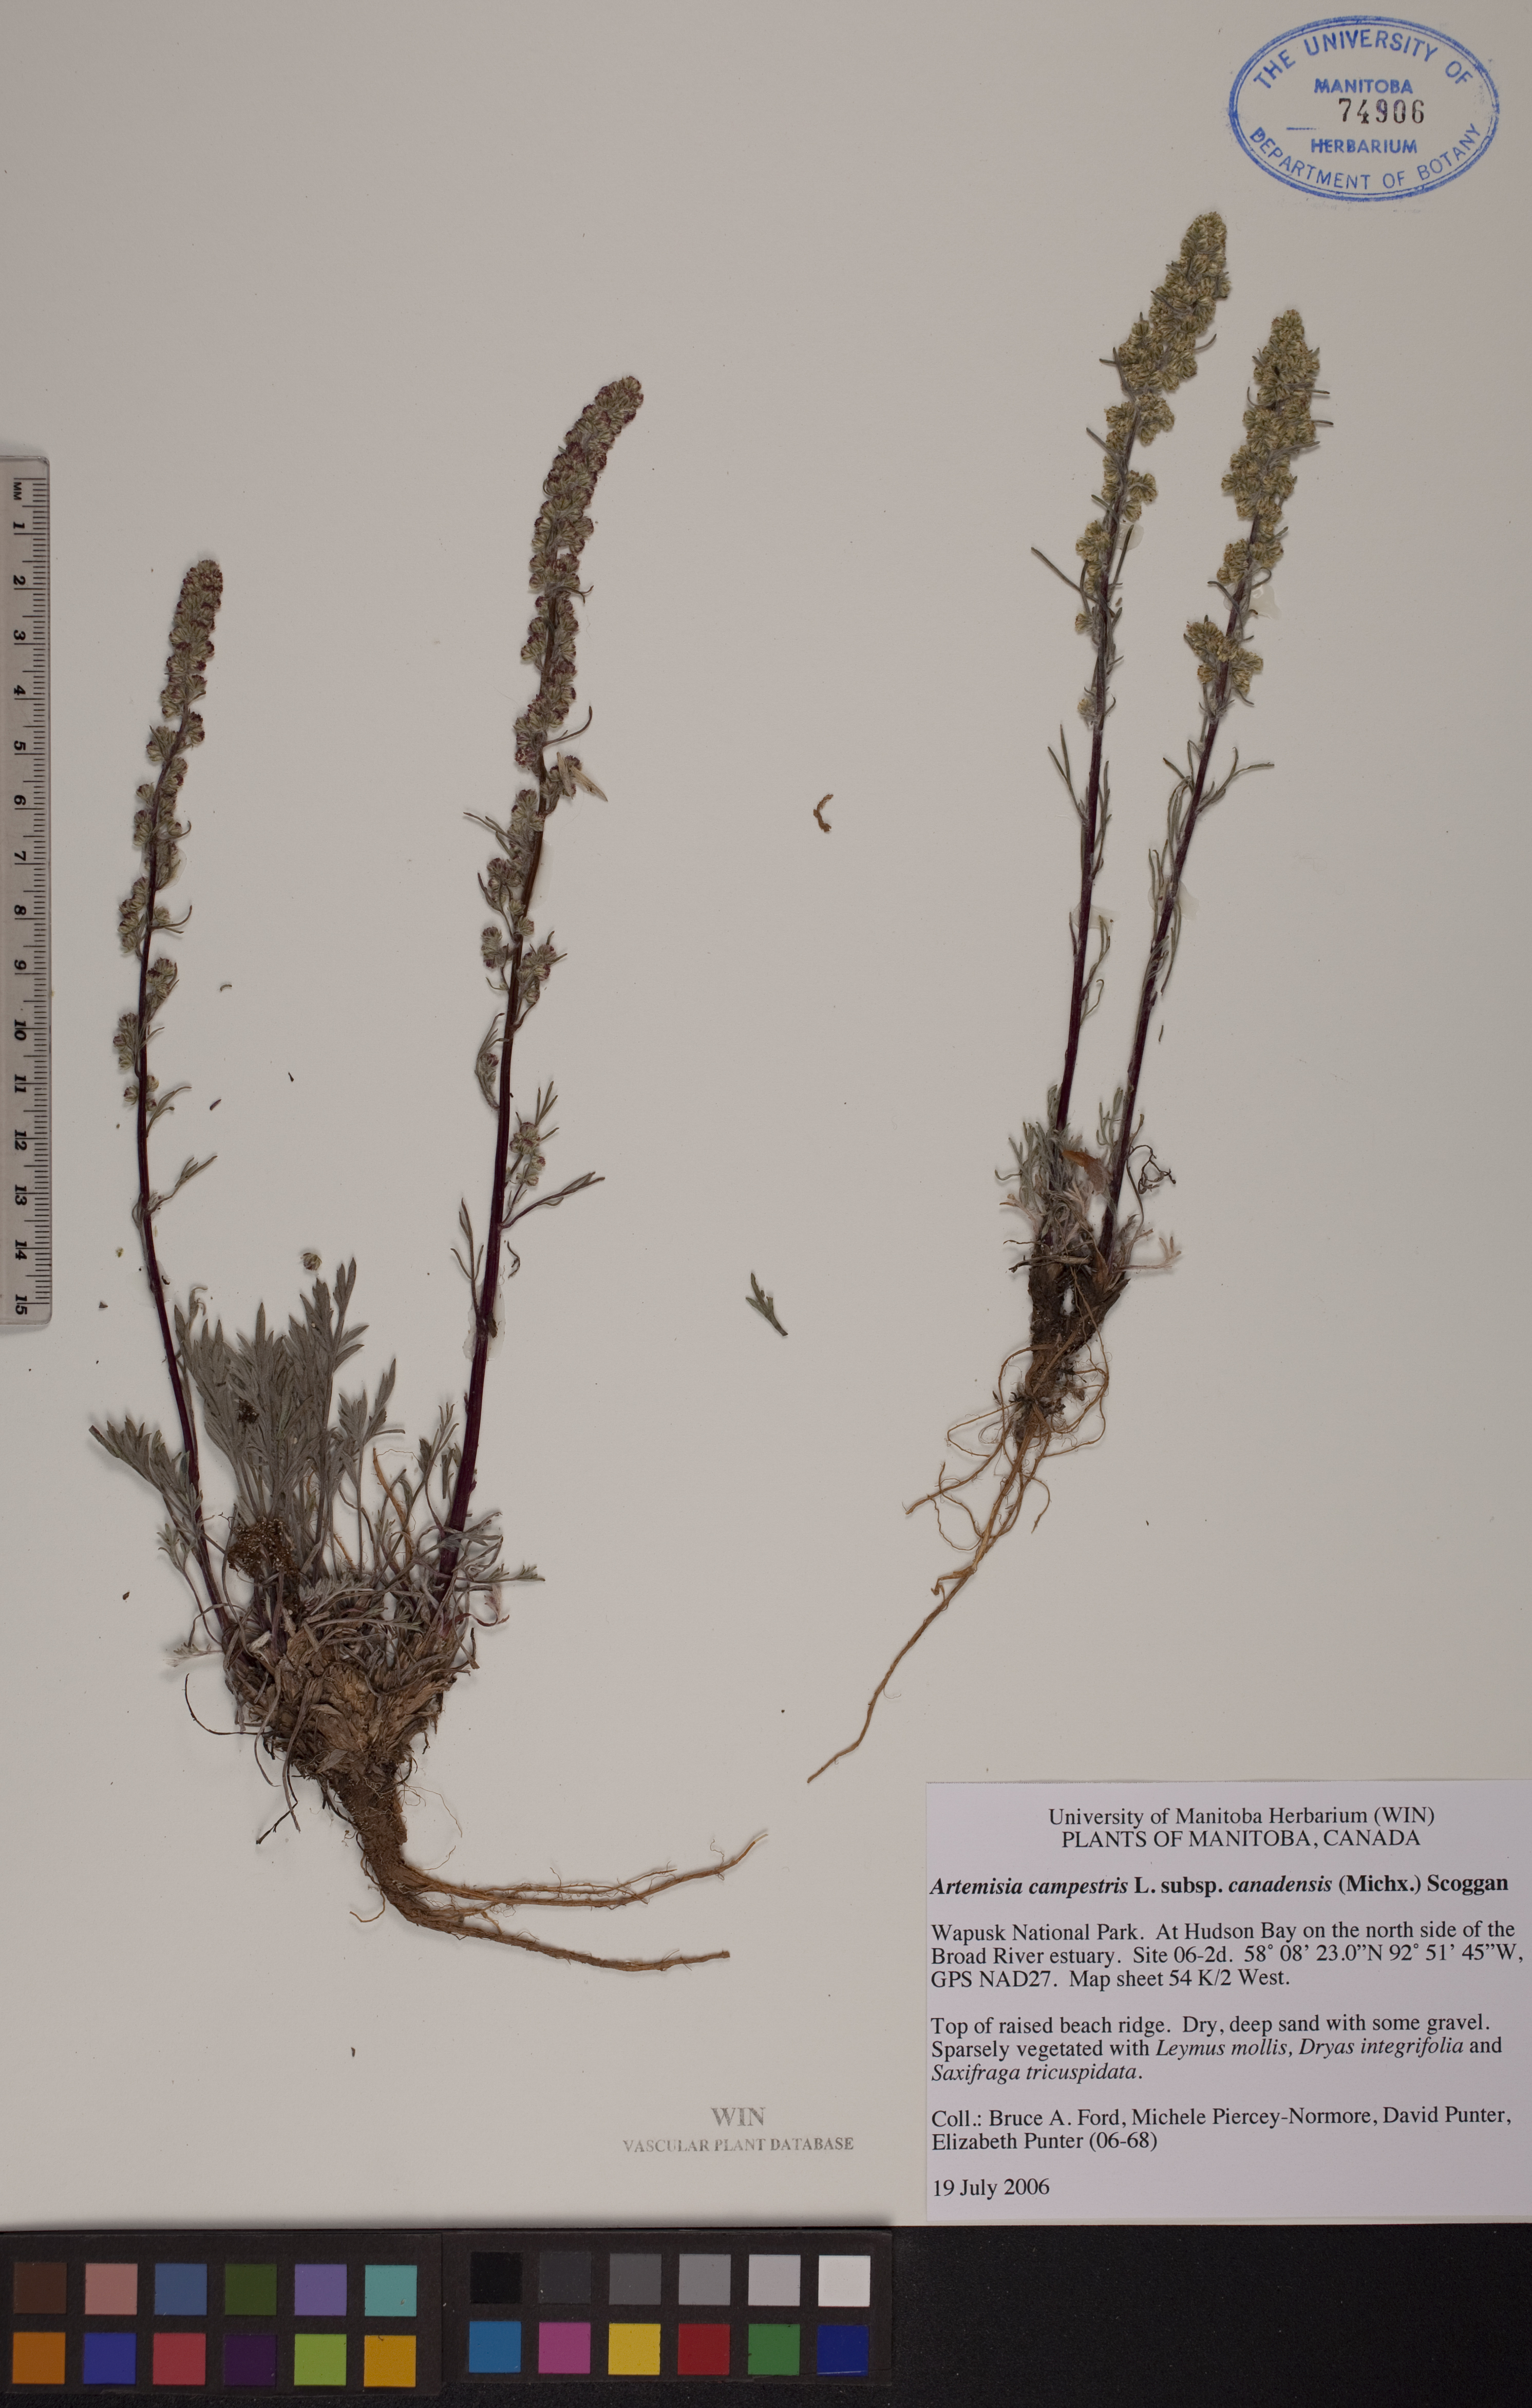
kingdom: Plantae
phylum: Tracheophyta
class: Magnoliopsida
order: Asterales
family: Asteraceae
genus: Artemisia
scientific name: Artemisia campestris
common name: Field wormwood
